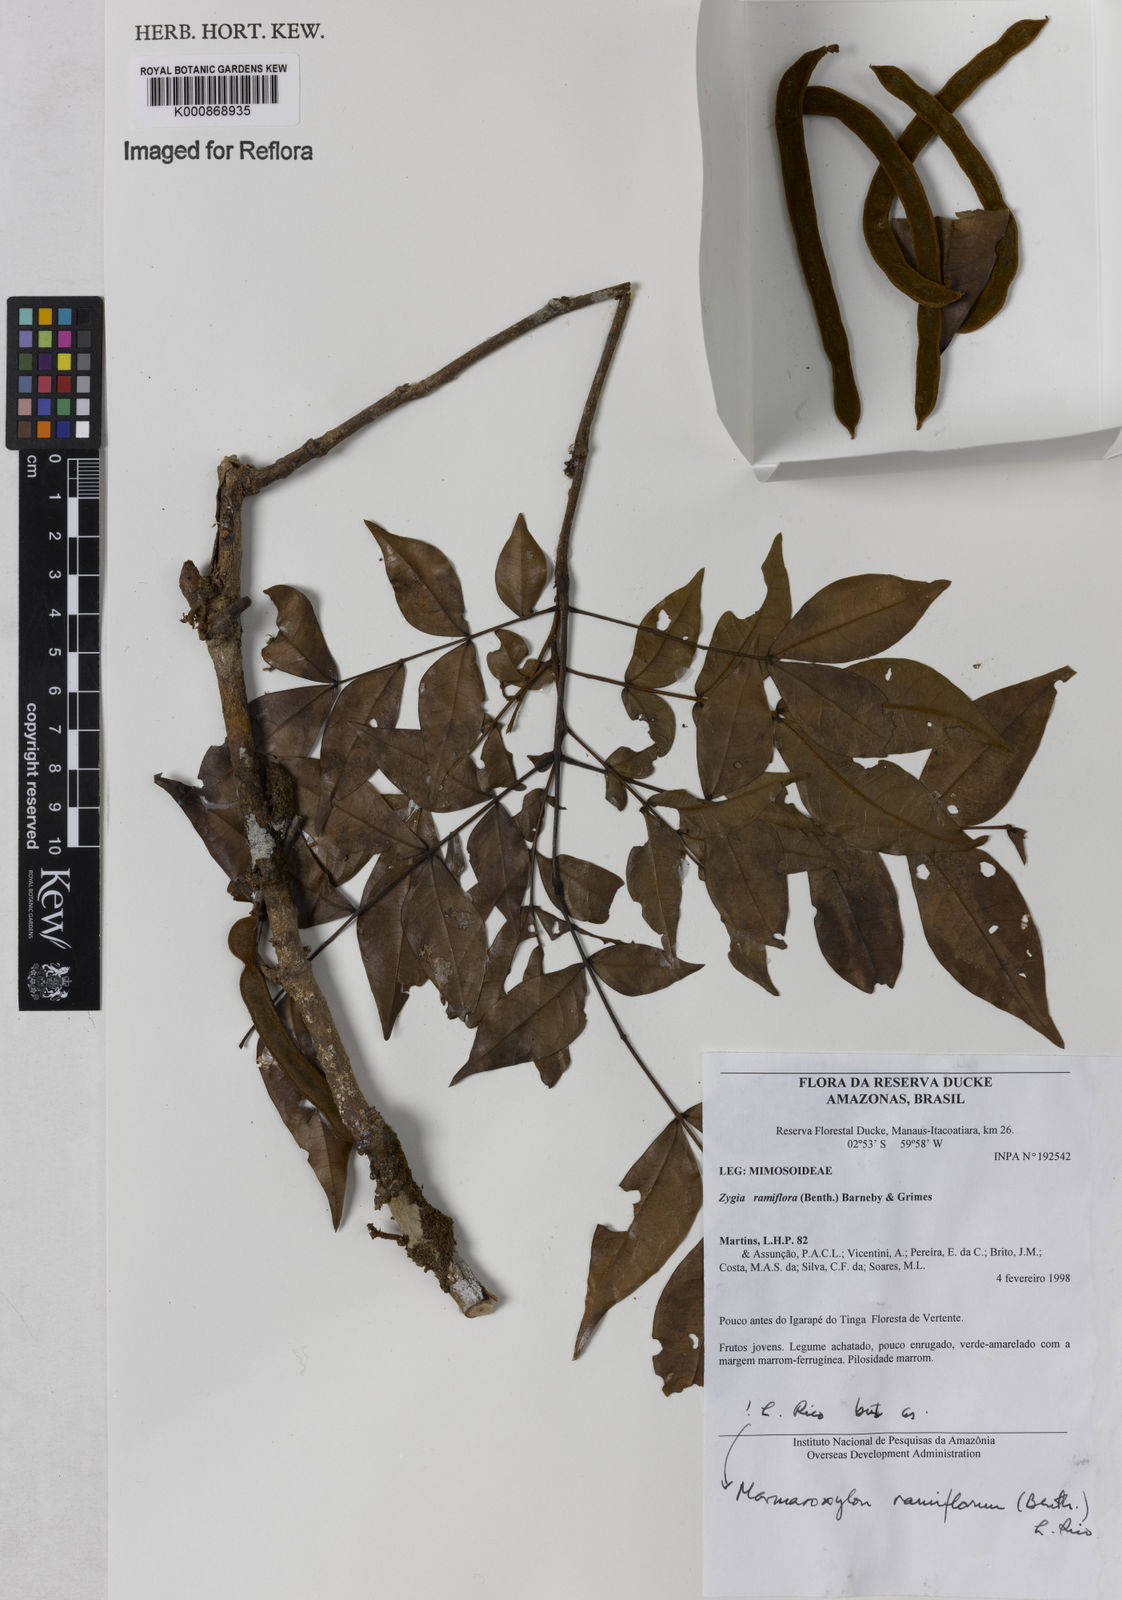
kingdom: Plantae
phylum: Tracheophyta
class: Magnoliopsida
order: Fabales
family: Fabaceae
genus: Zygia
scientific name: Zygia dinizii
